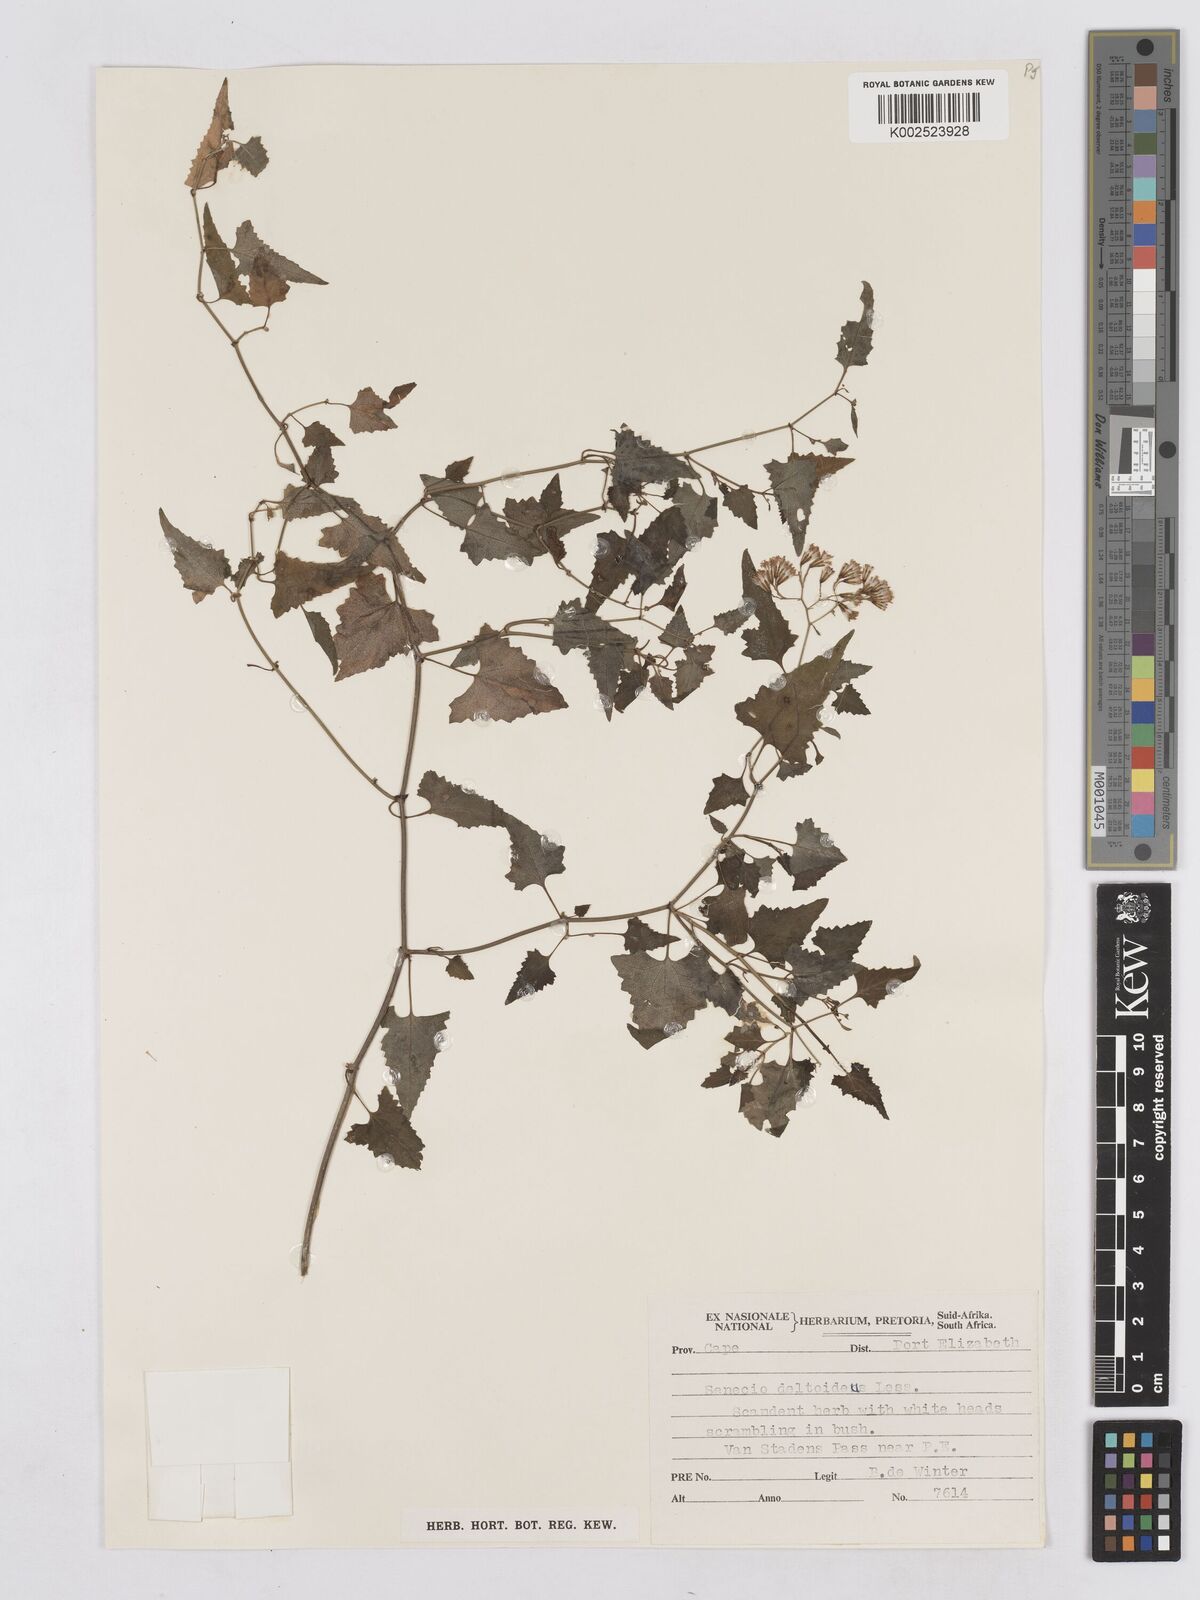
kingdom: Plantae
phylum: Tracheophyta
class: Magnoliopsida
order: Asterales
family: Asteraceae
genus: Senecio
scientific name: Senecio deltoideus
